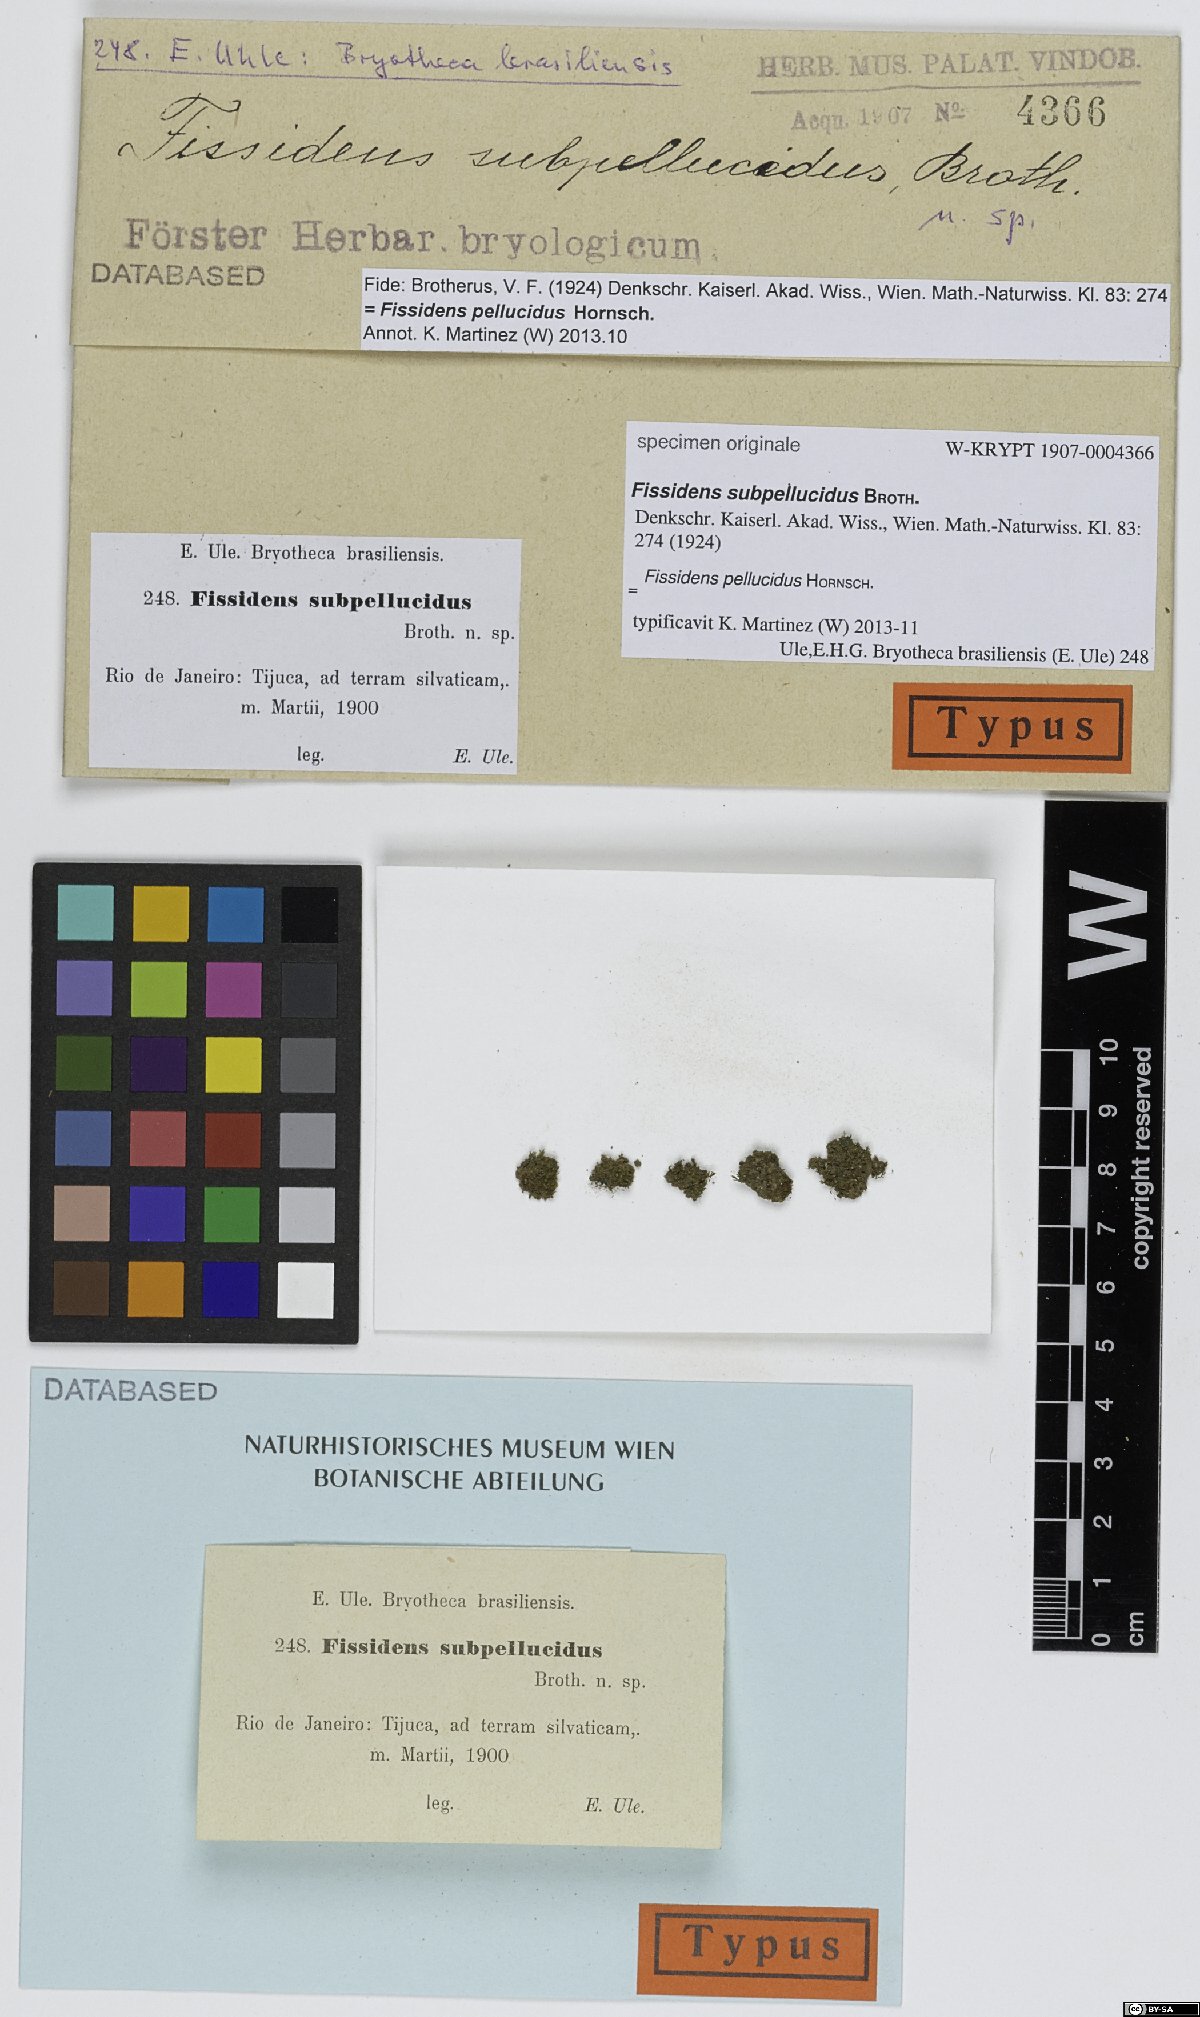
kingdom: Plantae
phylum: Bryophyta
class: Bryopsida
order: Dicranales
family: Fissidentaceae
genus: Fissidens
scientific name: Fissidens
